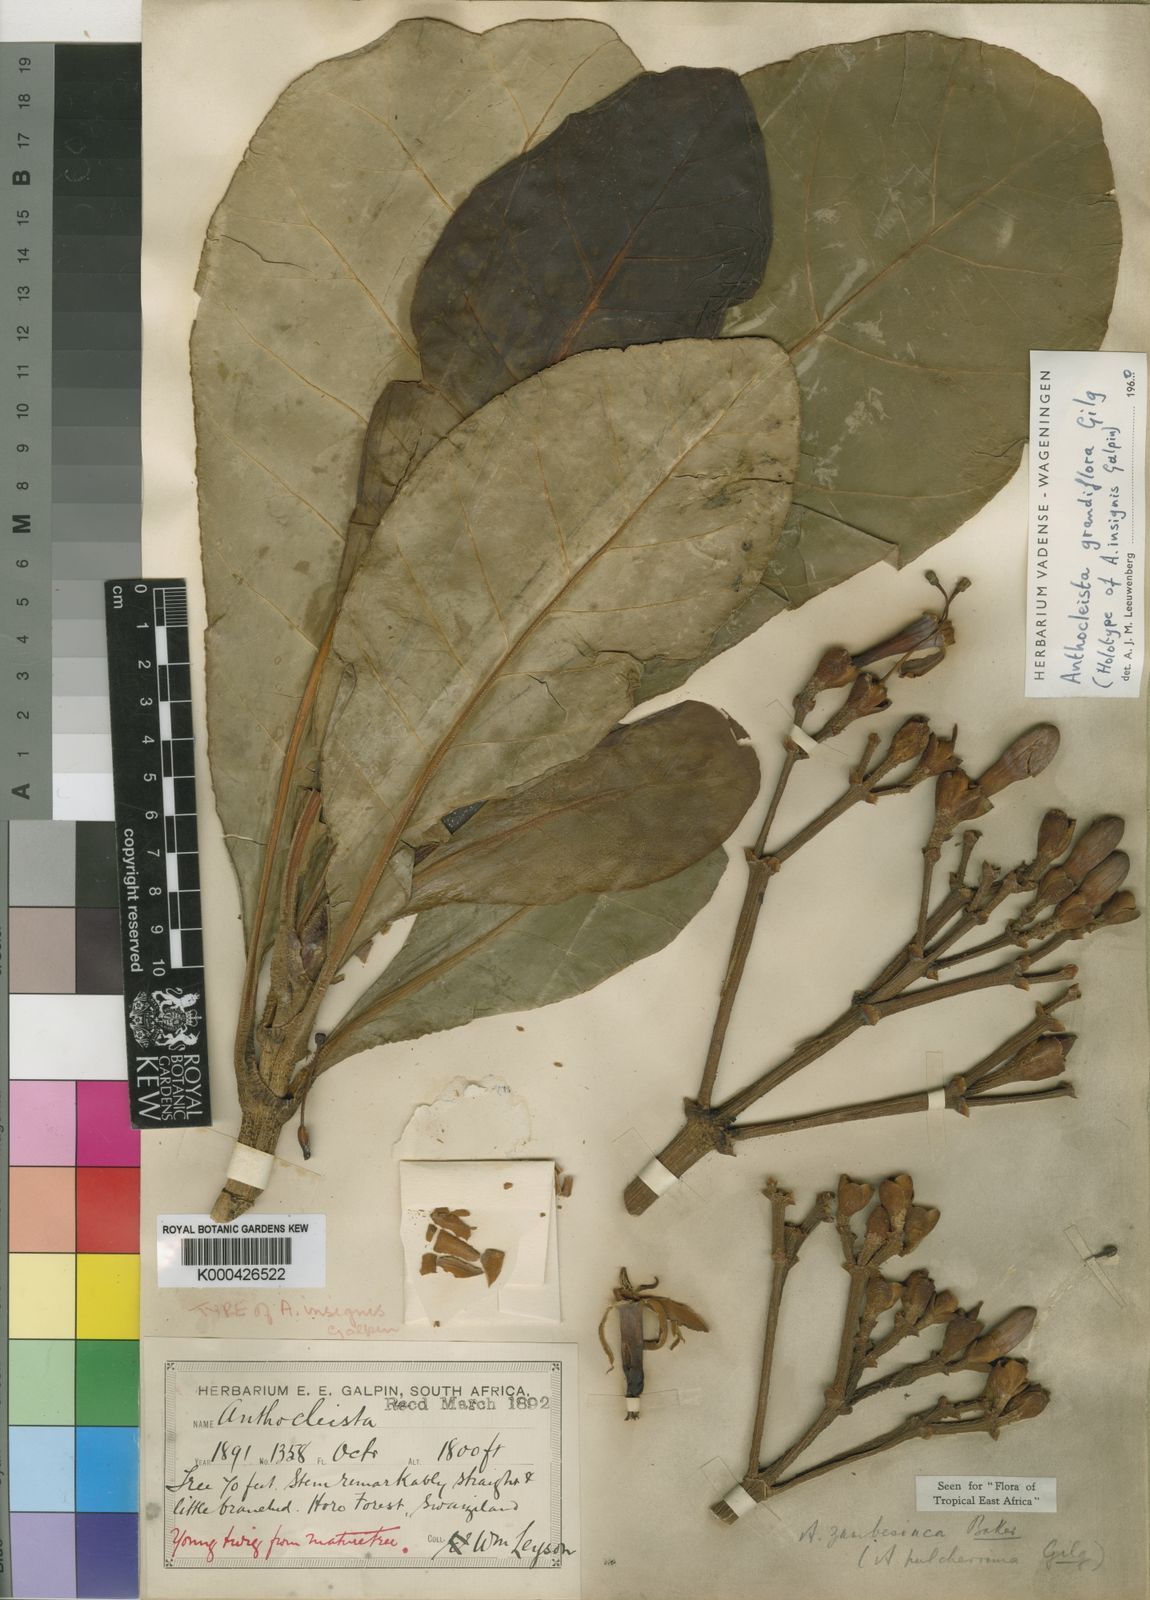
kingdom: Plantae
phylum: Tracheophyta
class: Magnoliopsida
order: Gentianales
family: Gentianaceae
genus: Anthocleista
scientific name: Anthocleista grandiflora
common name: Forest big-leaf
